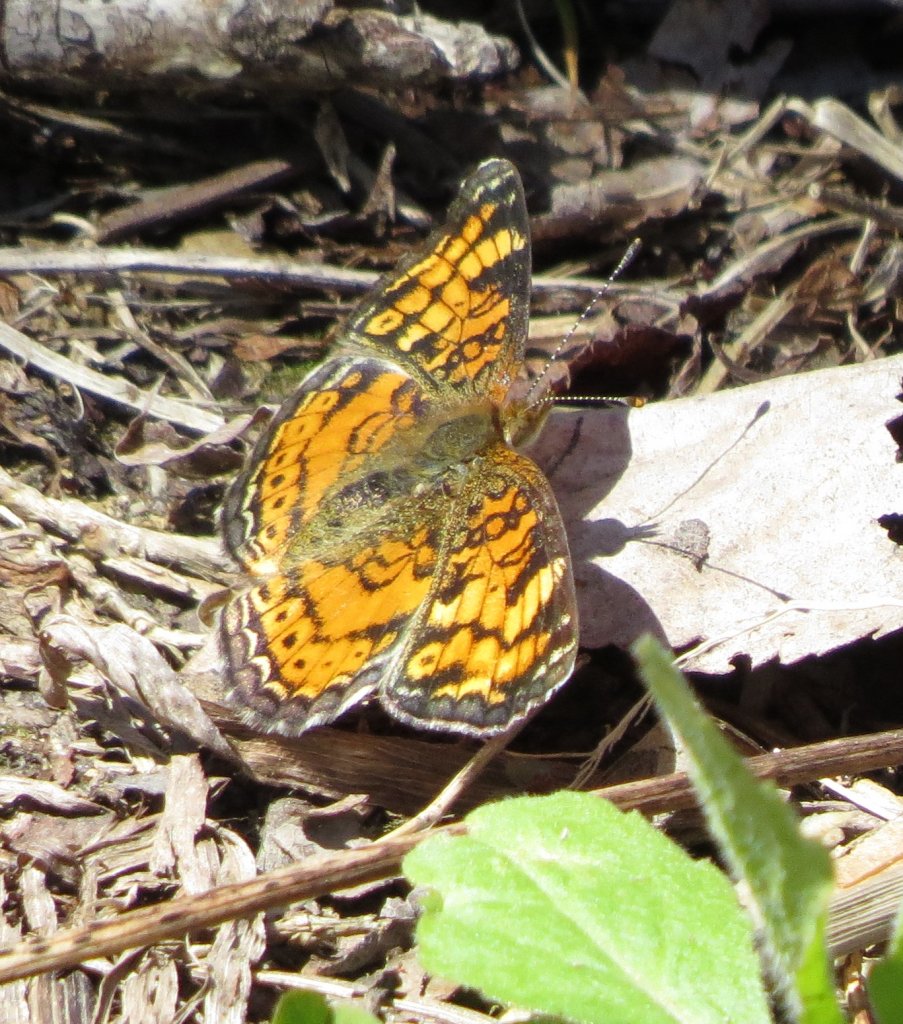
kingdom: Animalia
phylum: Arthropoda
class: Insecta
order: Lepidoptera
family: Nymphalidae
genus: Phyciodes
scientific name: Phyciodes tharos
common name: Pearl Crescent
